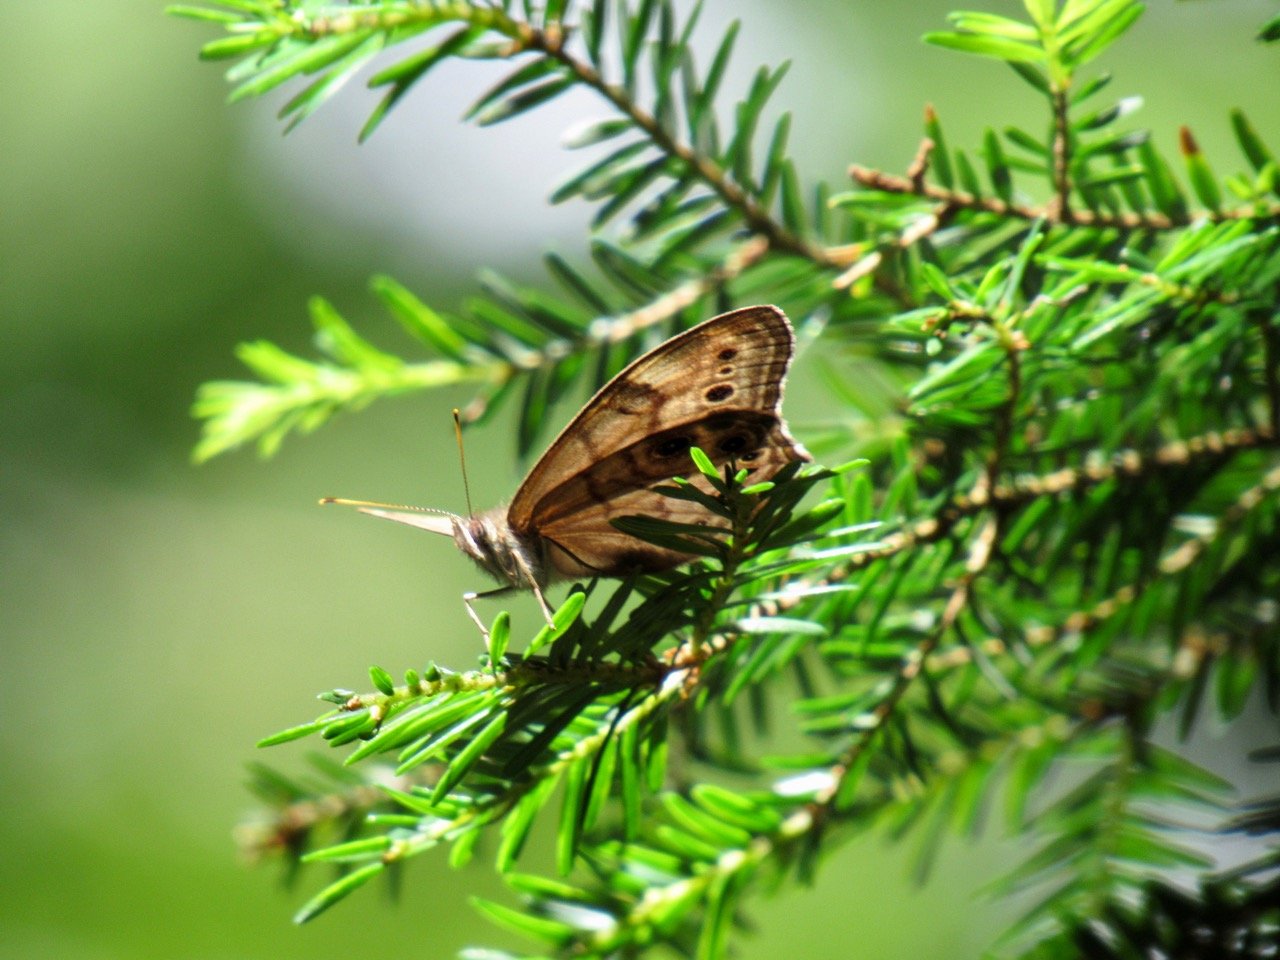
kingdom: Animalia
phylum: Arthropoda
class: Insecta
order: Lepidoptera
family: Nymphalidae
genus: Lethe
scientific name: Lethe anthedon
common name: Northern Pearly-Eye
